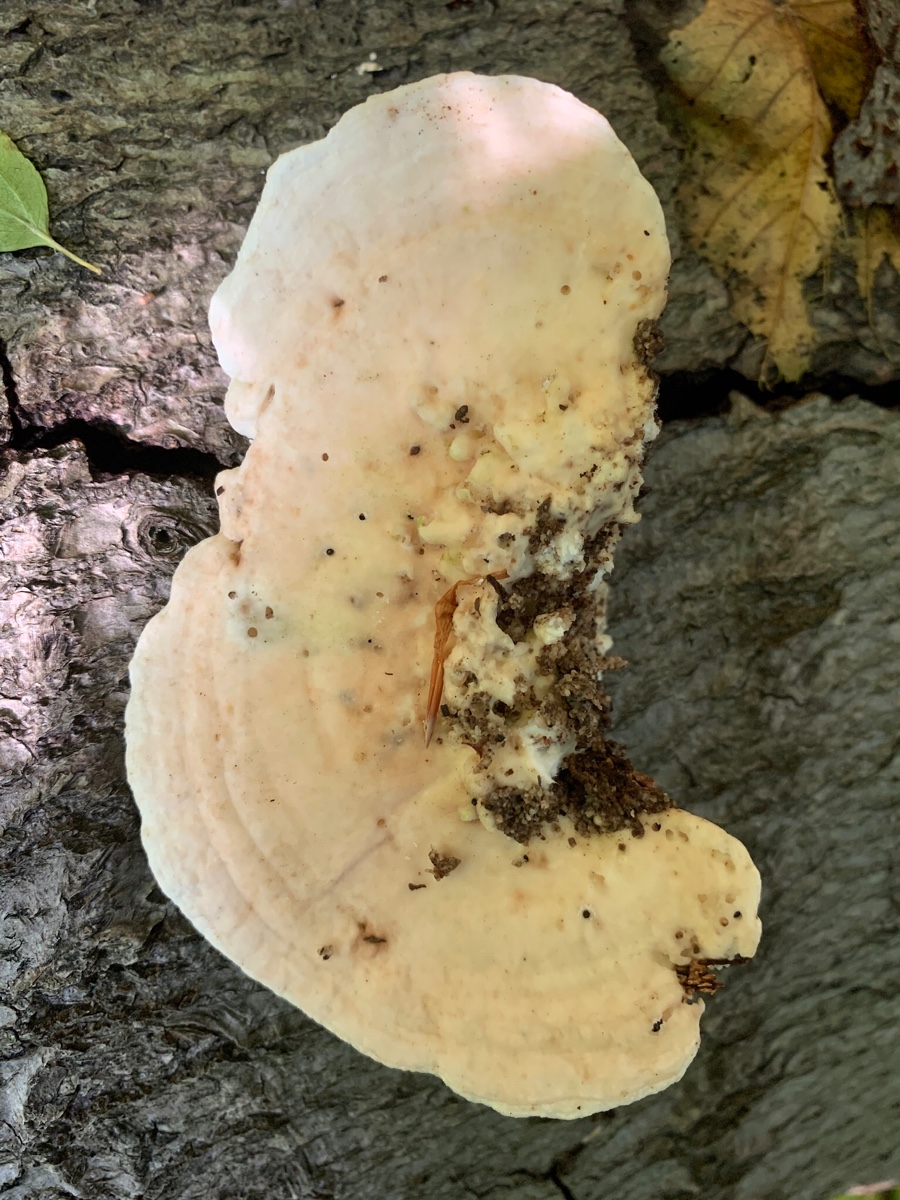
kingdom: Fungi
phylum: Basidiomycota
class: Agaricomycetes
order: Polyporales
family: Polyporaceae
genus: Trametes
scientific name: Trametes gibbosa
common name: puklet læderporesvamp
